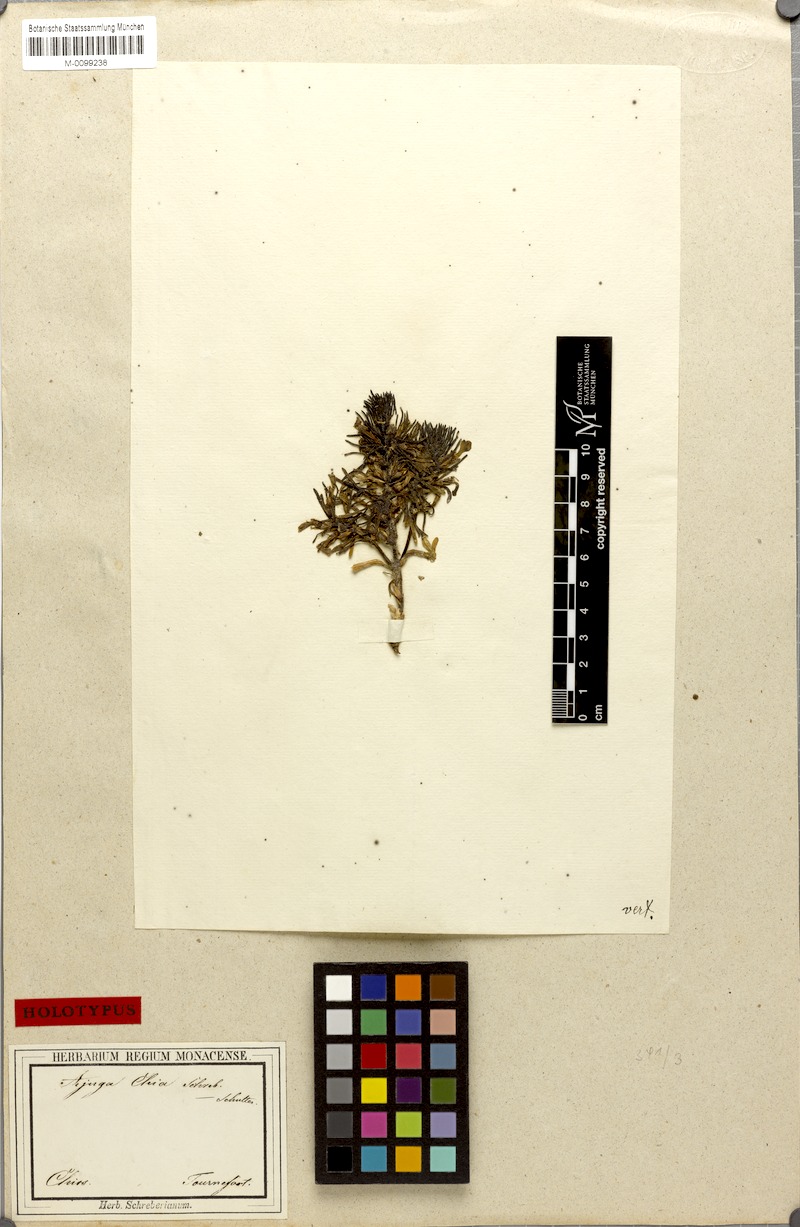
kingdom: Plantae
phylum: Tracheophyta
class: Magnoliopsida
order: Lamiales
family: Lamiaceae
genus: Ajuga
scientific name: Ajuga chamaepitys
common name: Ground-pine
